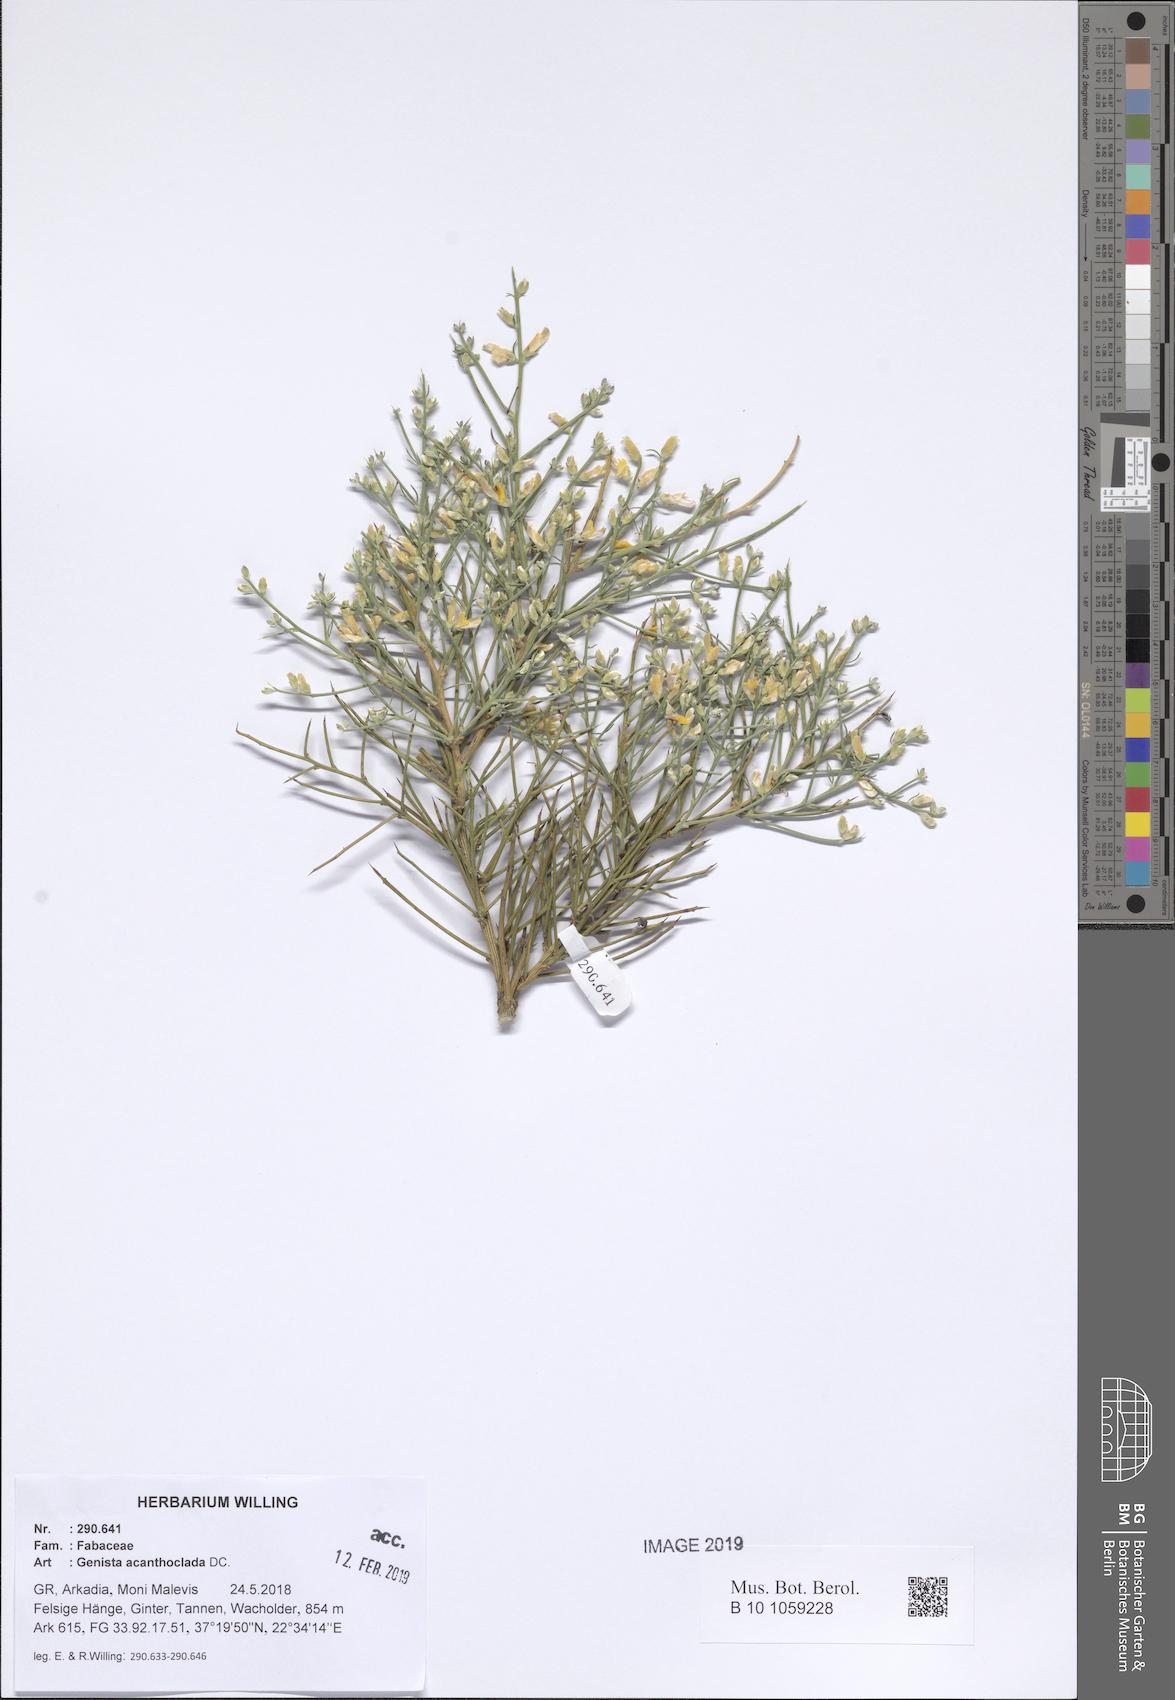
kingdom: Plantae
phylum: Tracheophyta
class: Magnoliopsida
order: Fabales
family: Fabaceae
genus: Genista
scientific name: Genista acanthoclada
